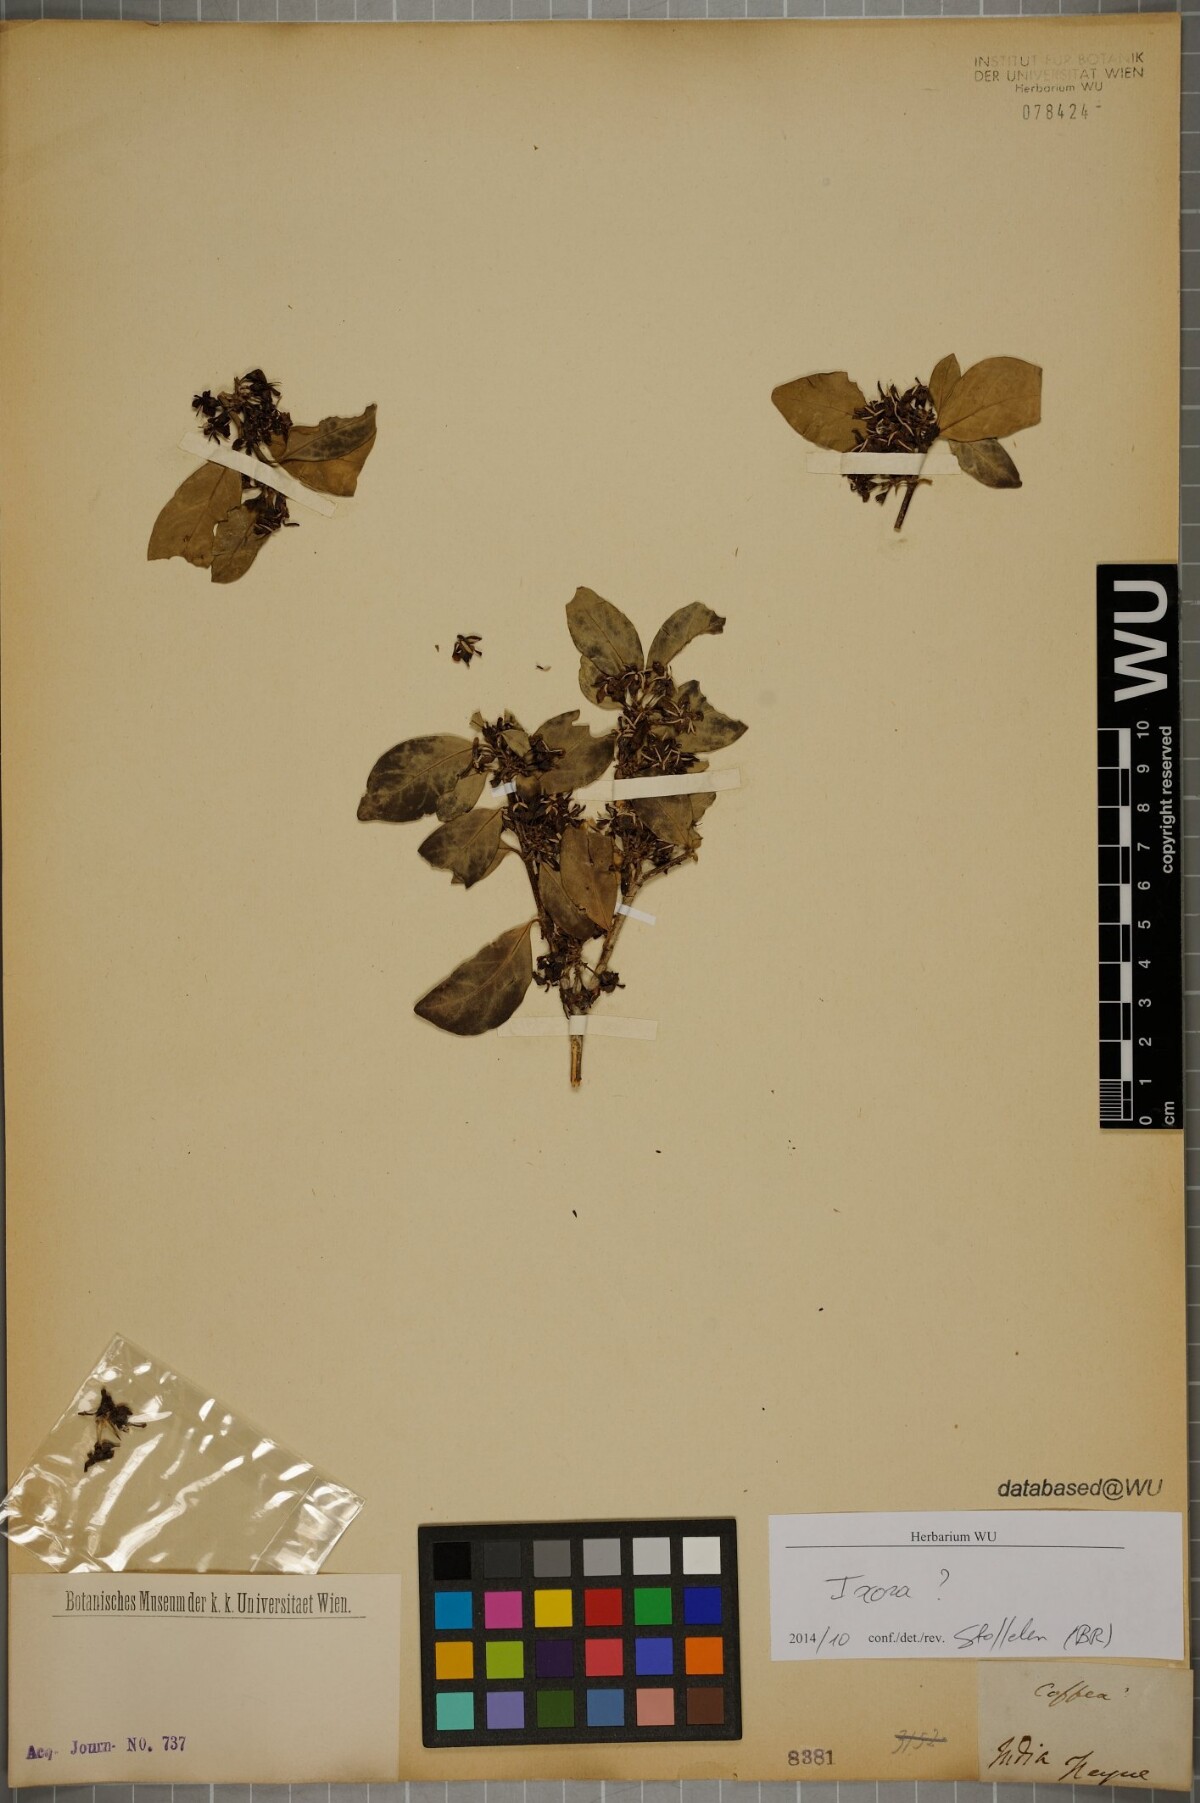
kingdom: Plantae
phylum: Tracheophyta
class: Magnoliopsida
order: Gentianales
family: Rubiaceae
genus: Ixora
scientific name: Ixora
